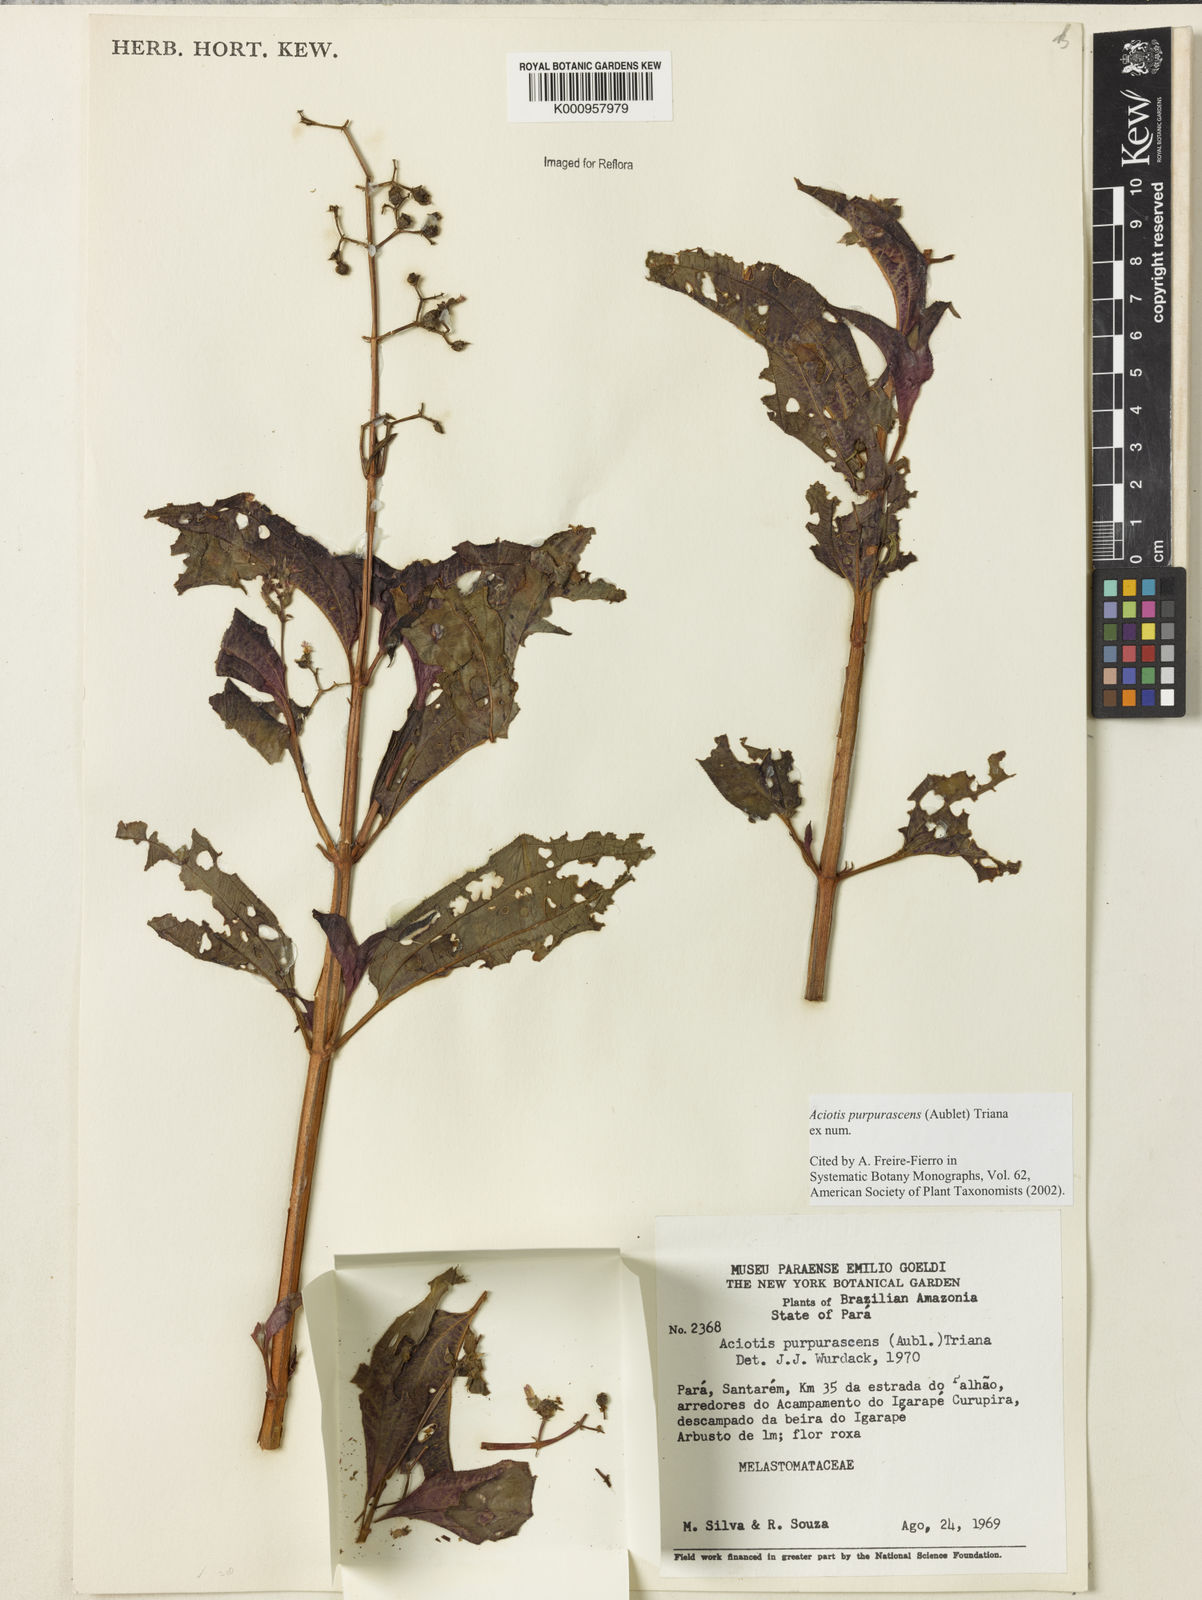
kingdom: Plantae
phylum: Tracheophyta
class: Magnoliopsida
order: Myrtales
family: Melastomataceae
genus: Aciotis
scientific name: Aciotis purpurascens
